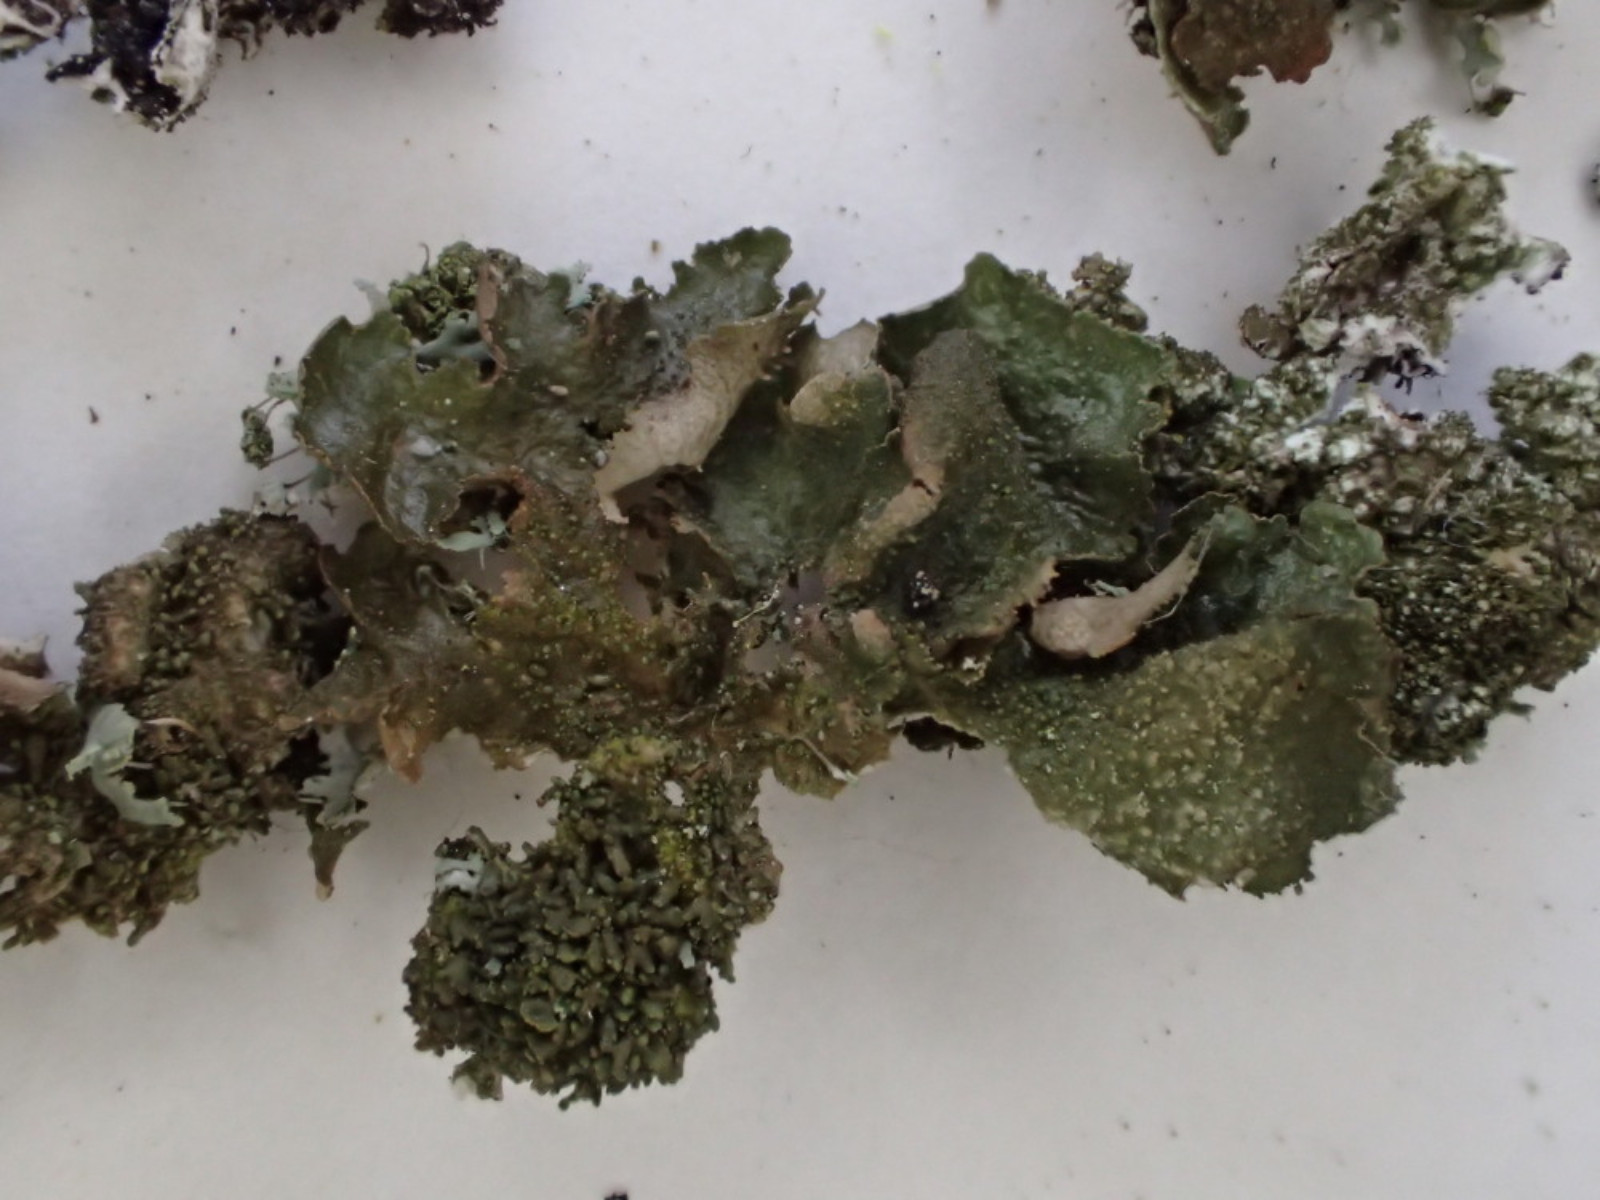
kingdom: Fungi
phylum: Ascomycota
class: Lecanoromycetes
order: Lecanorales
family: Parmeliaceae
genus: Melanohalea
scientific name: Melanohalea exasperatula
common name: kølle-skållav
